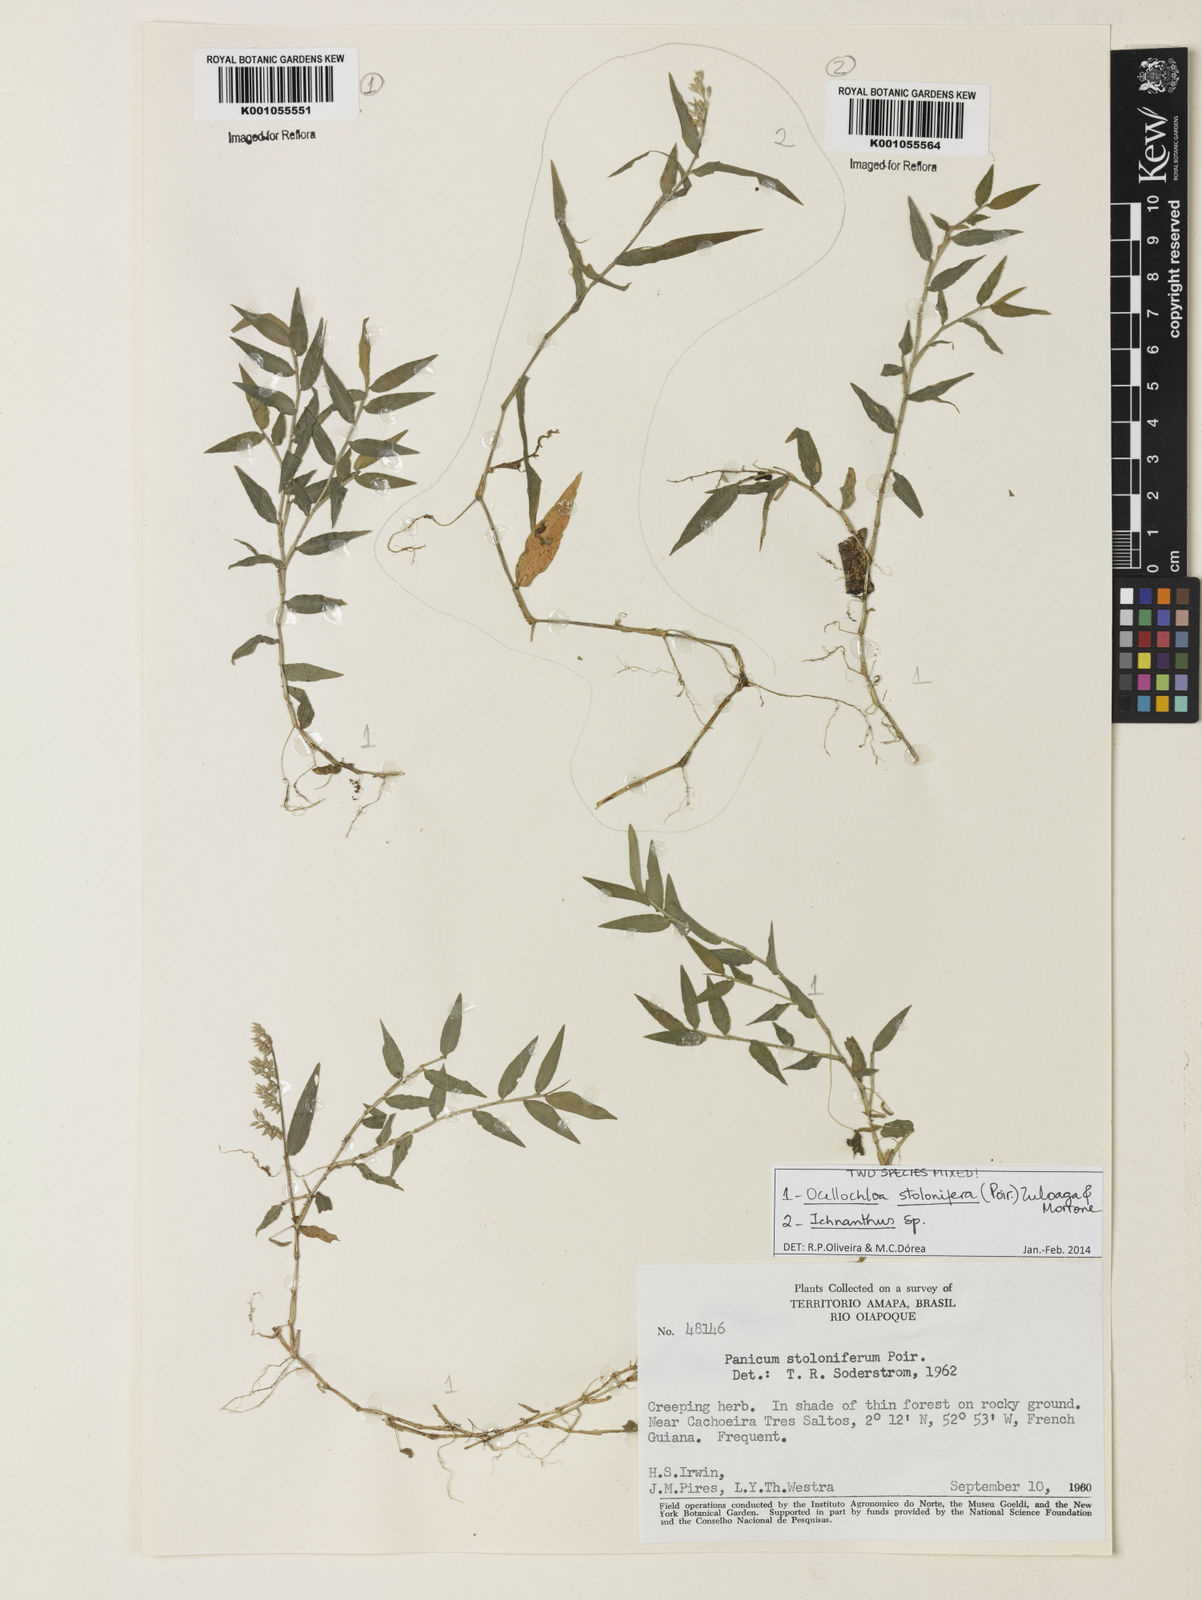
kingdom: Plantae
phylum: Tracheophyta
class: Liliopsida
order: Poales
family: Poaceae
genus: Ocellochloa
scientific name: Ocellochloa stolonifera
